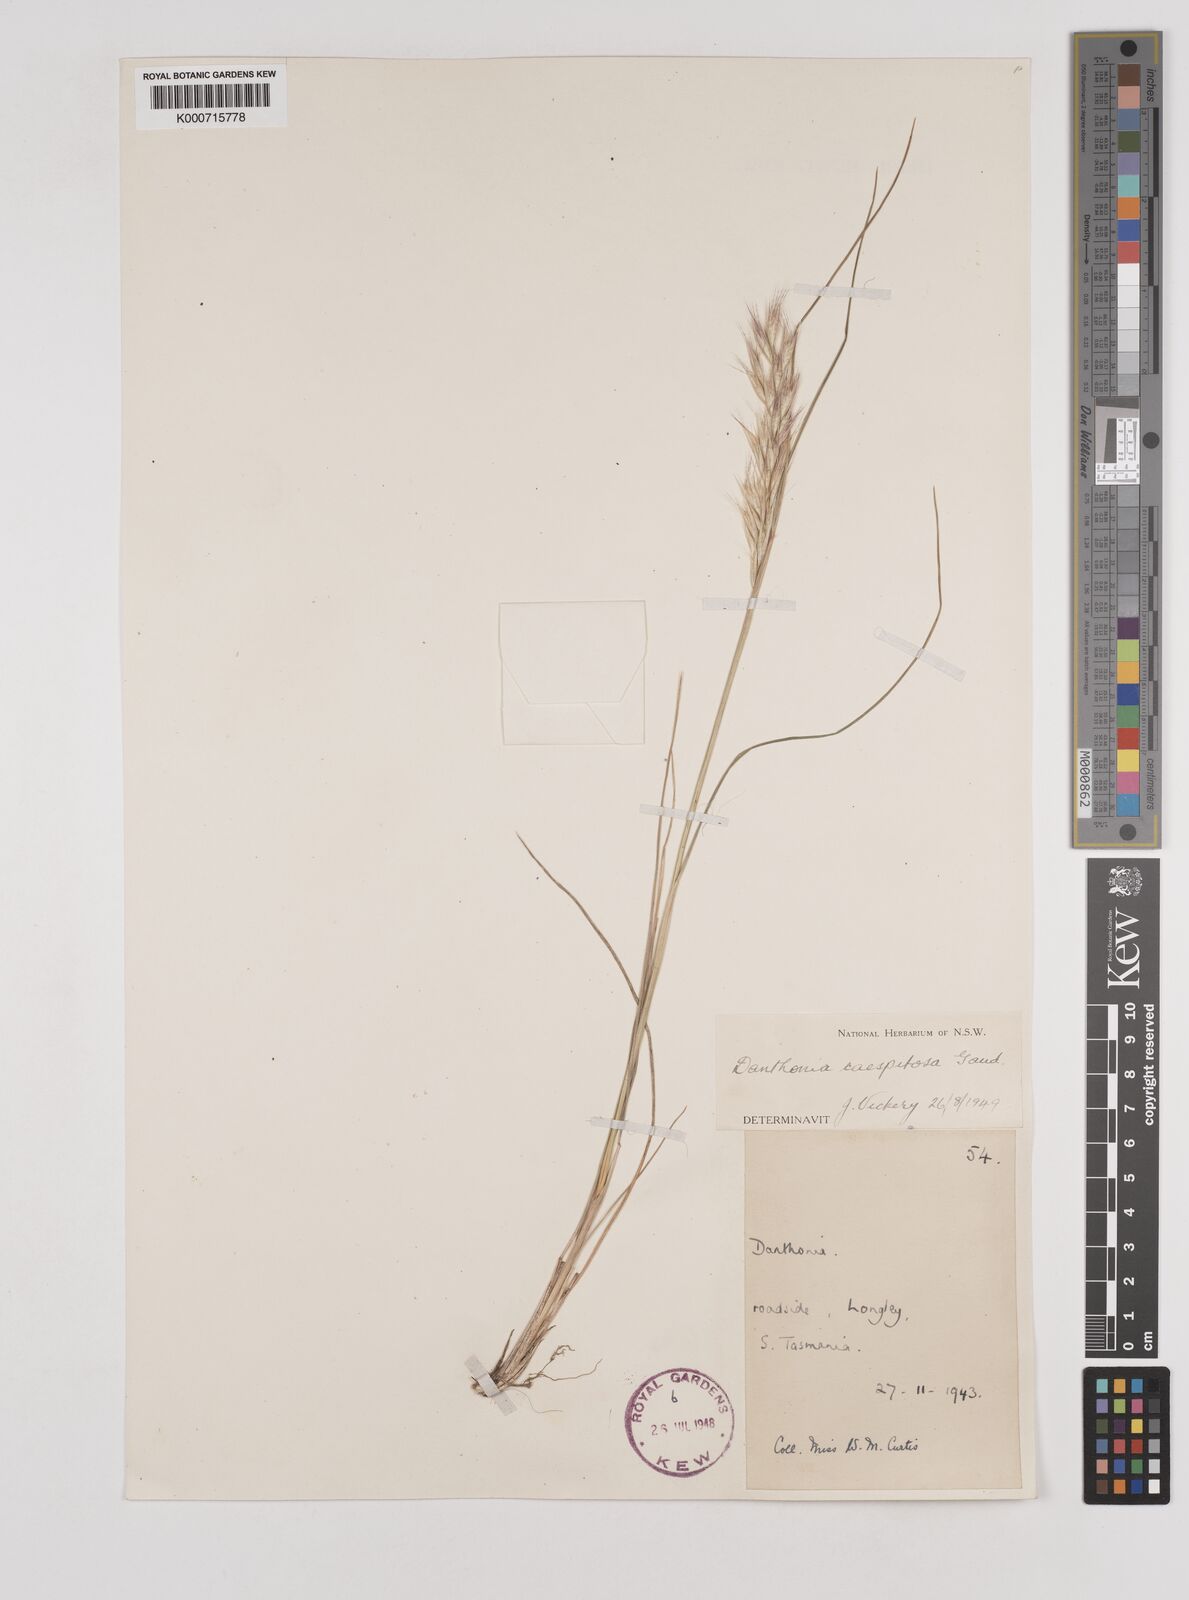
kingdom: Plantae
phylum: Tracheophyta
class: Liliopsida
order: Poales
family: Poaceae
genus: Rytidosperma
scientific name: Rytidosperma caespitosum
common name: Tufted wallaby grass
